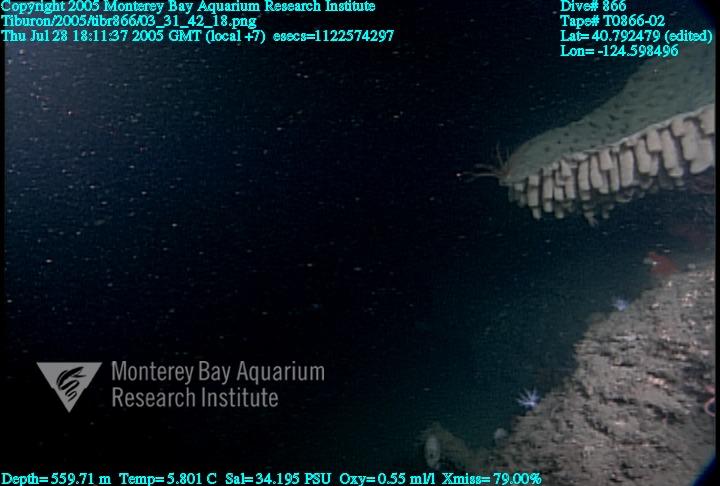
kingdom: Animalia
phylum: Porifera
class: Hexactinellida
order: Sceptrulophora
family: Aphrocallistidae
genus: Heterochone
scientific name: Heterochone calyx
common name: Fingered goblet glass sponge
